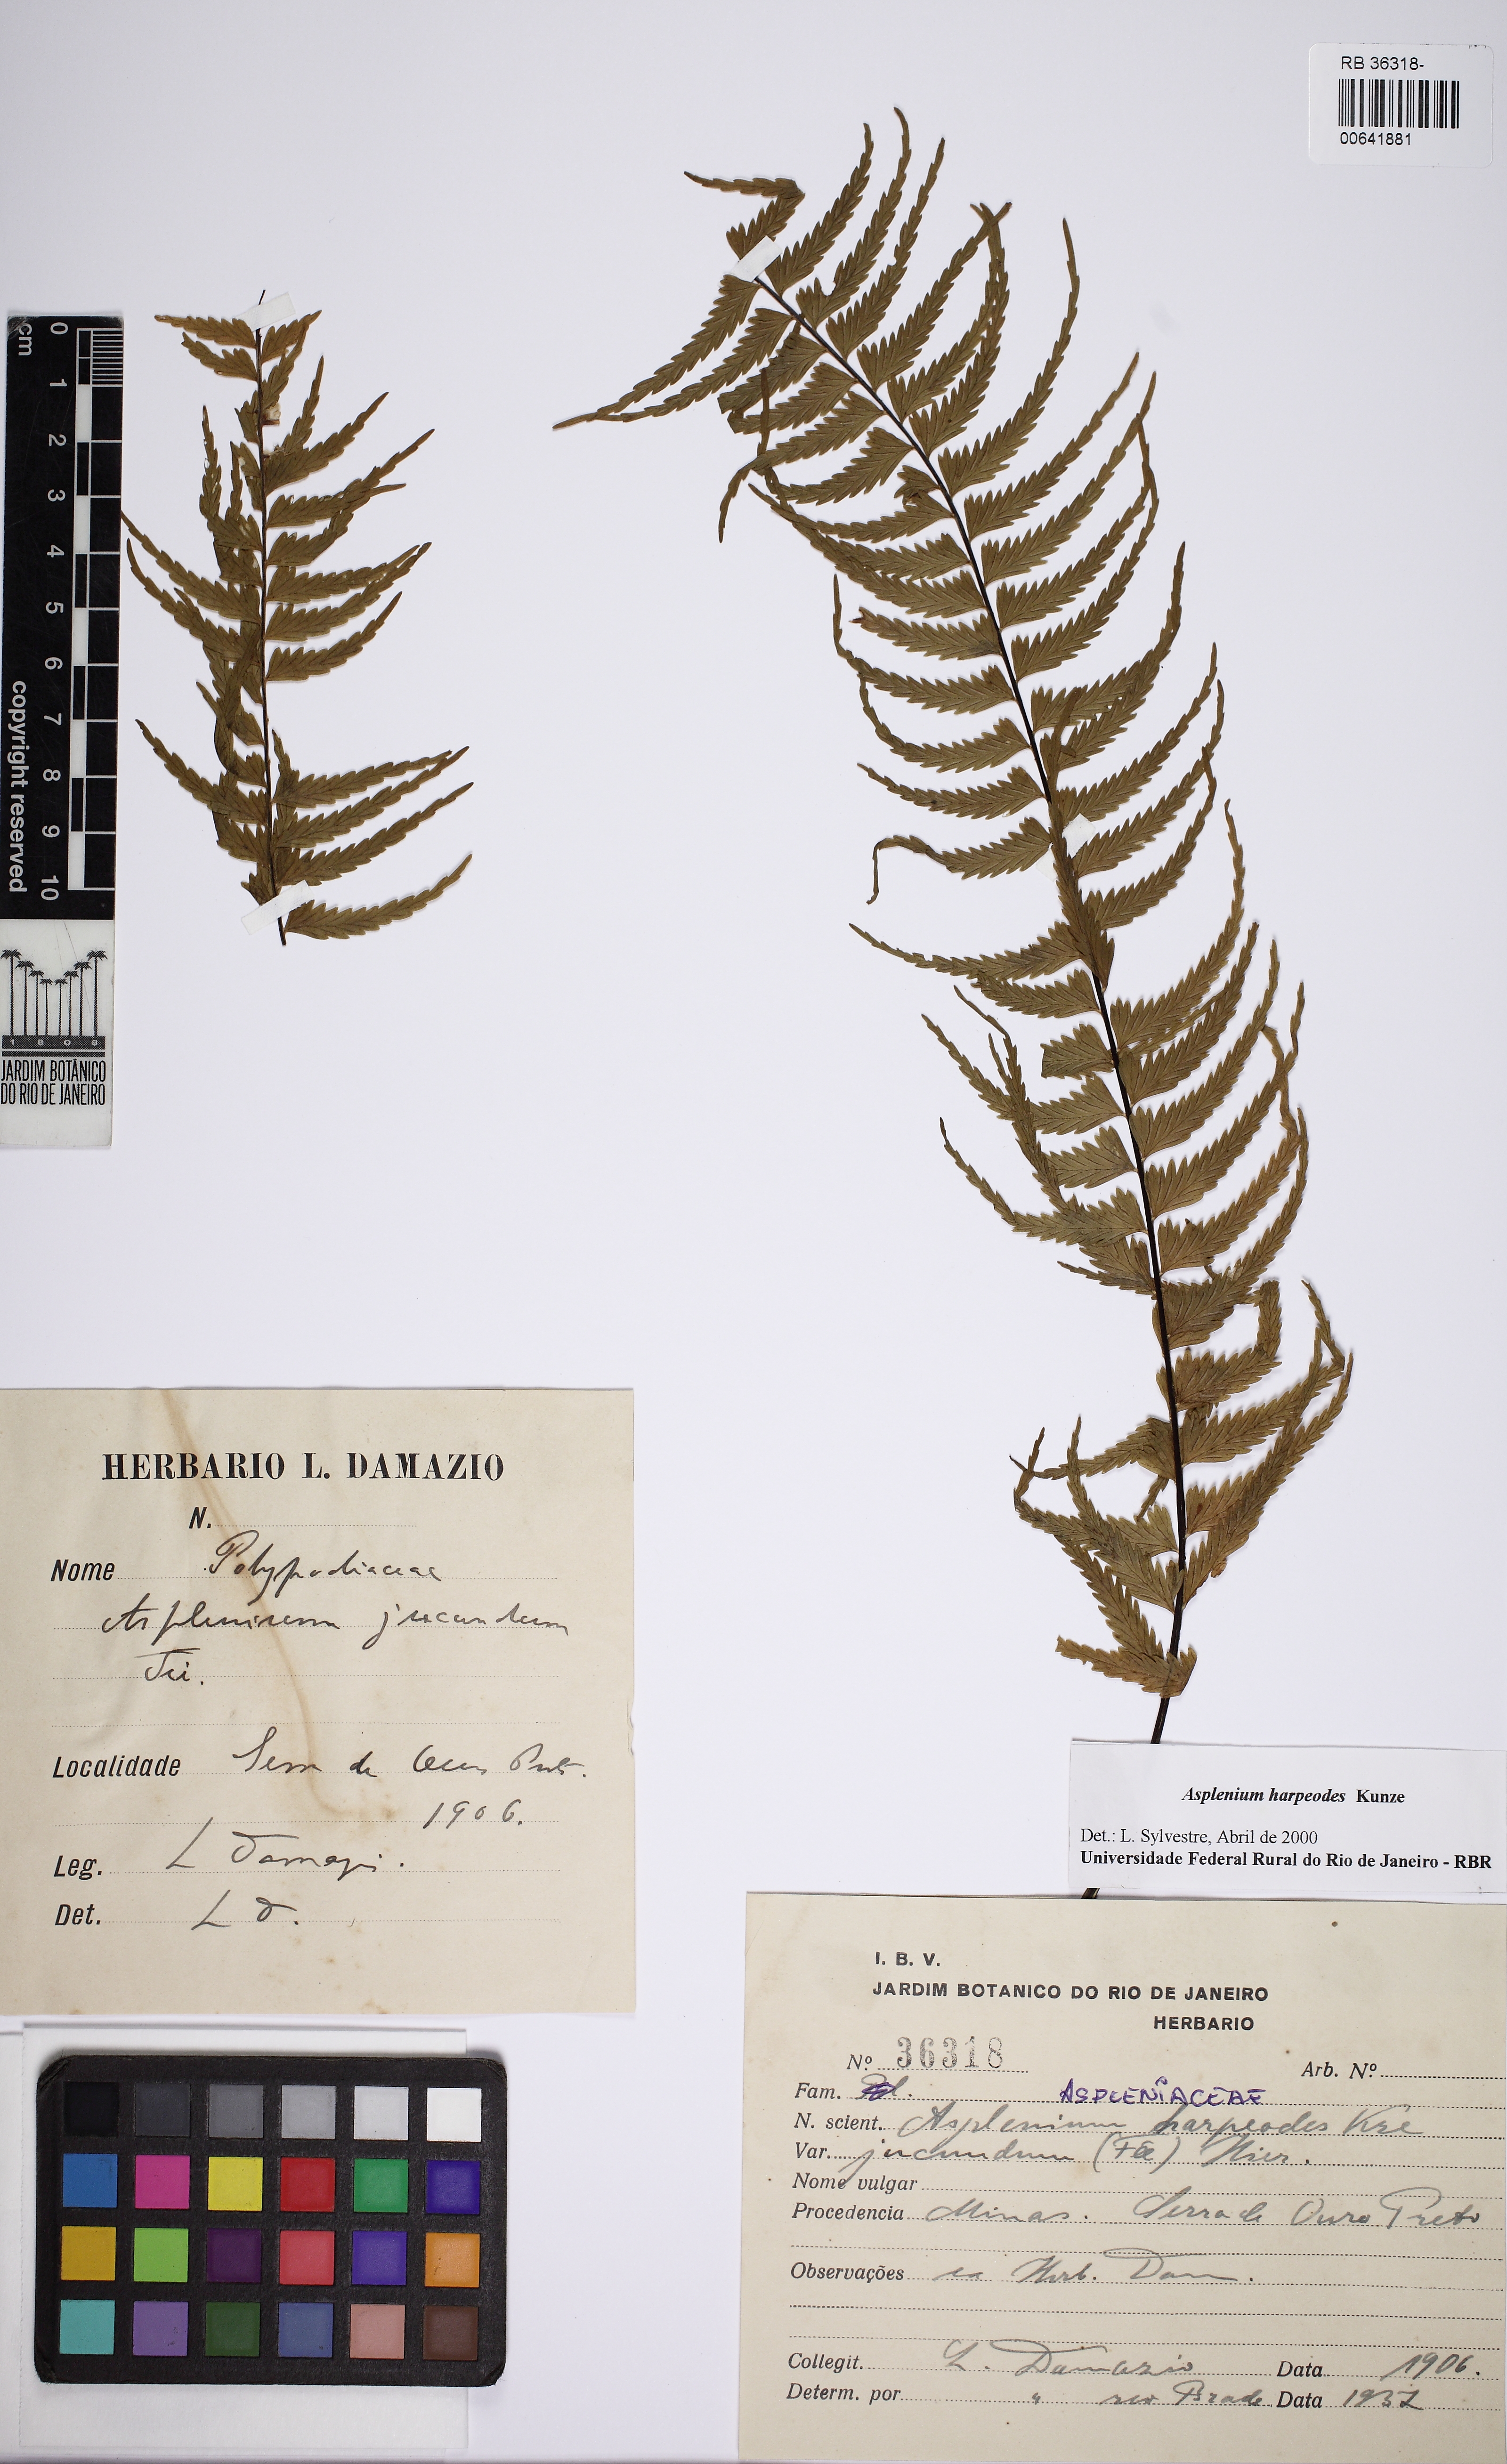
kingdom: Plantae
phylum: Tracheophyta
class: Polypodiopsida
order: Polypodiales
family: Aspleniaceae
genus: Asplenium
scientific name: Asplenium harpeodes
